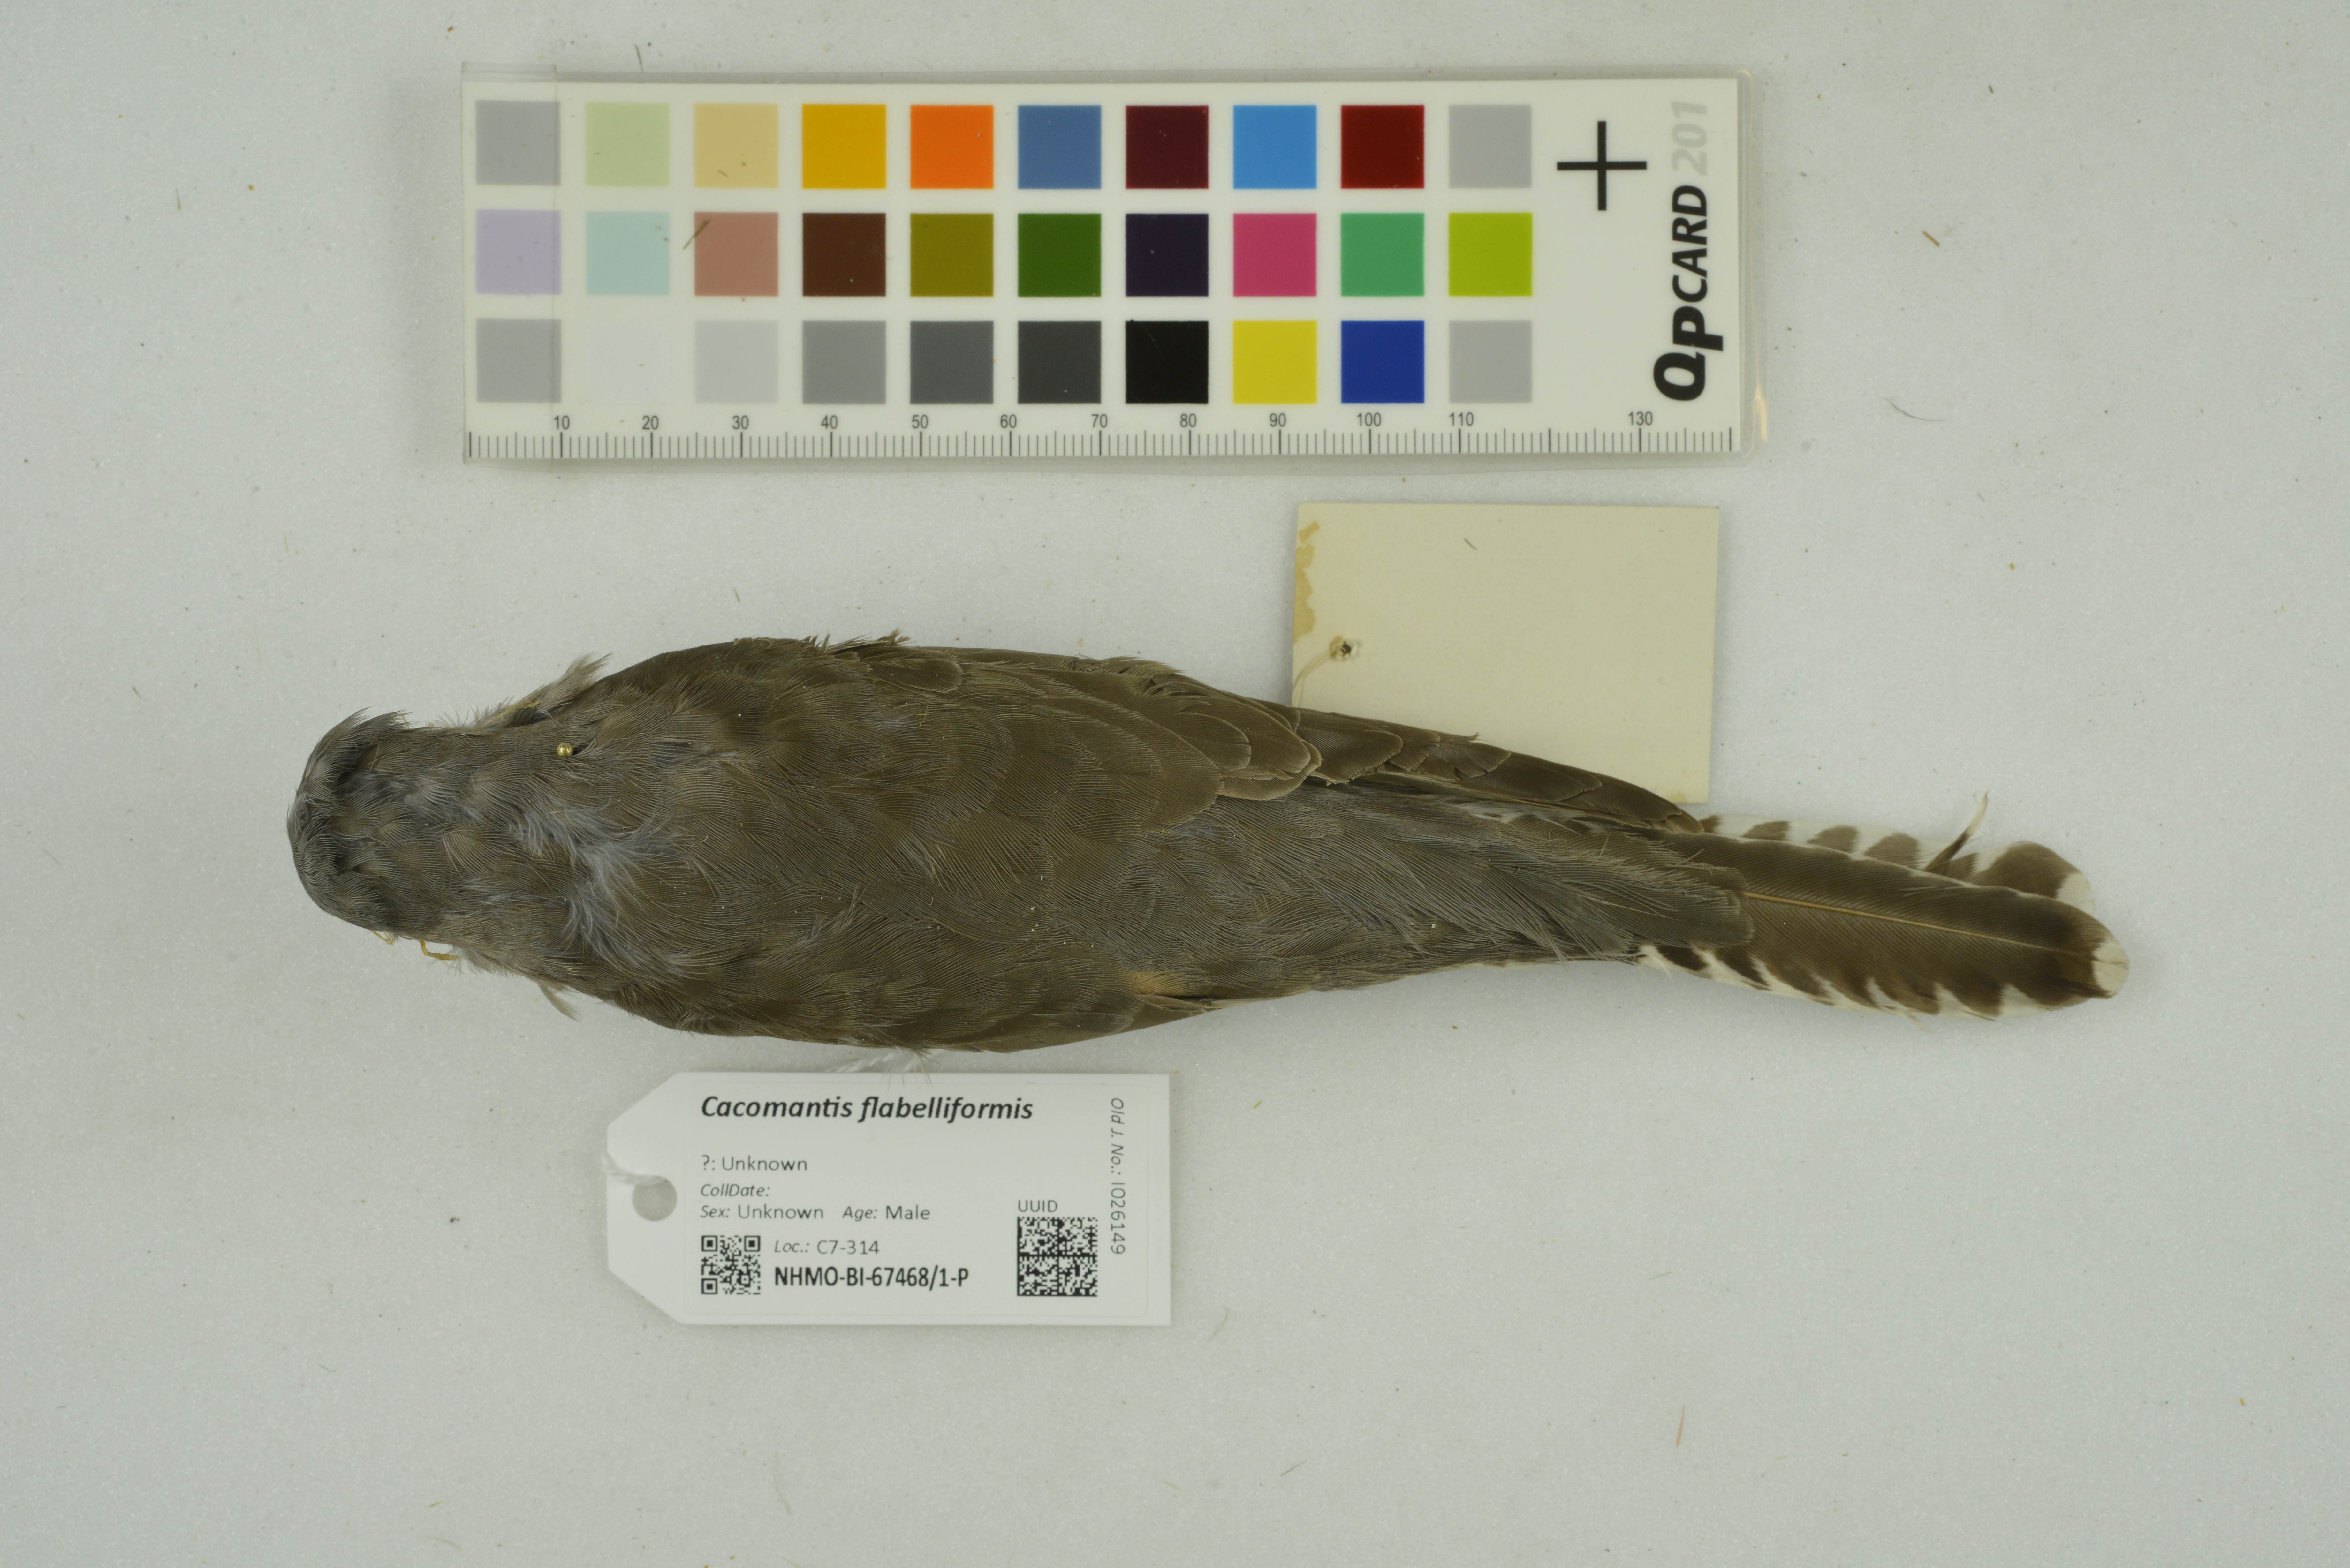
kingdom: Animalia
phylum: Chordata
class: Aves
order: Cuculiformes
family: Cuculidae
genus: Cacomantis
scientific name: Cacomantis flabelliformis
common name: Fan-tailed cuckoo
